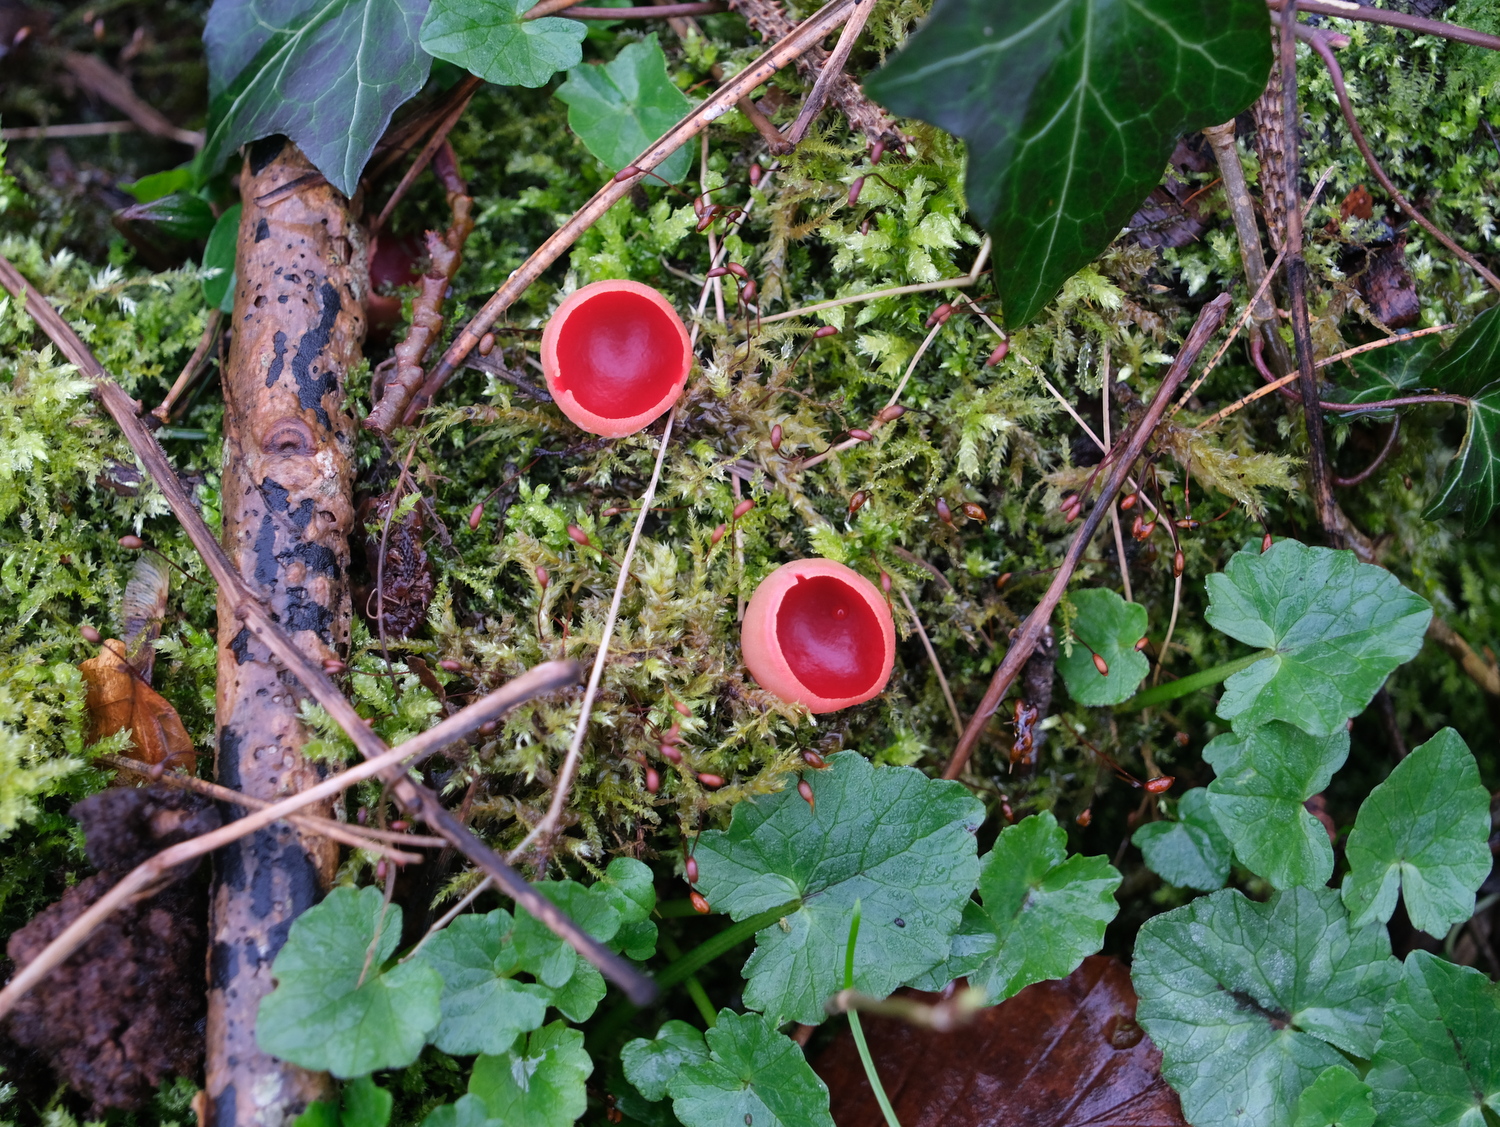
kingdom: Fungi
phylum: Ascomycota
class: Pezizomycetes
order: Pezizales
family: Sarcoscyphaceae
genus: Sarcoscypha
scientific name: Sarcoscypha austriaca
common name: krølhåret pragtbæger
